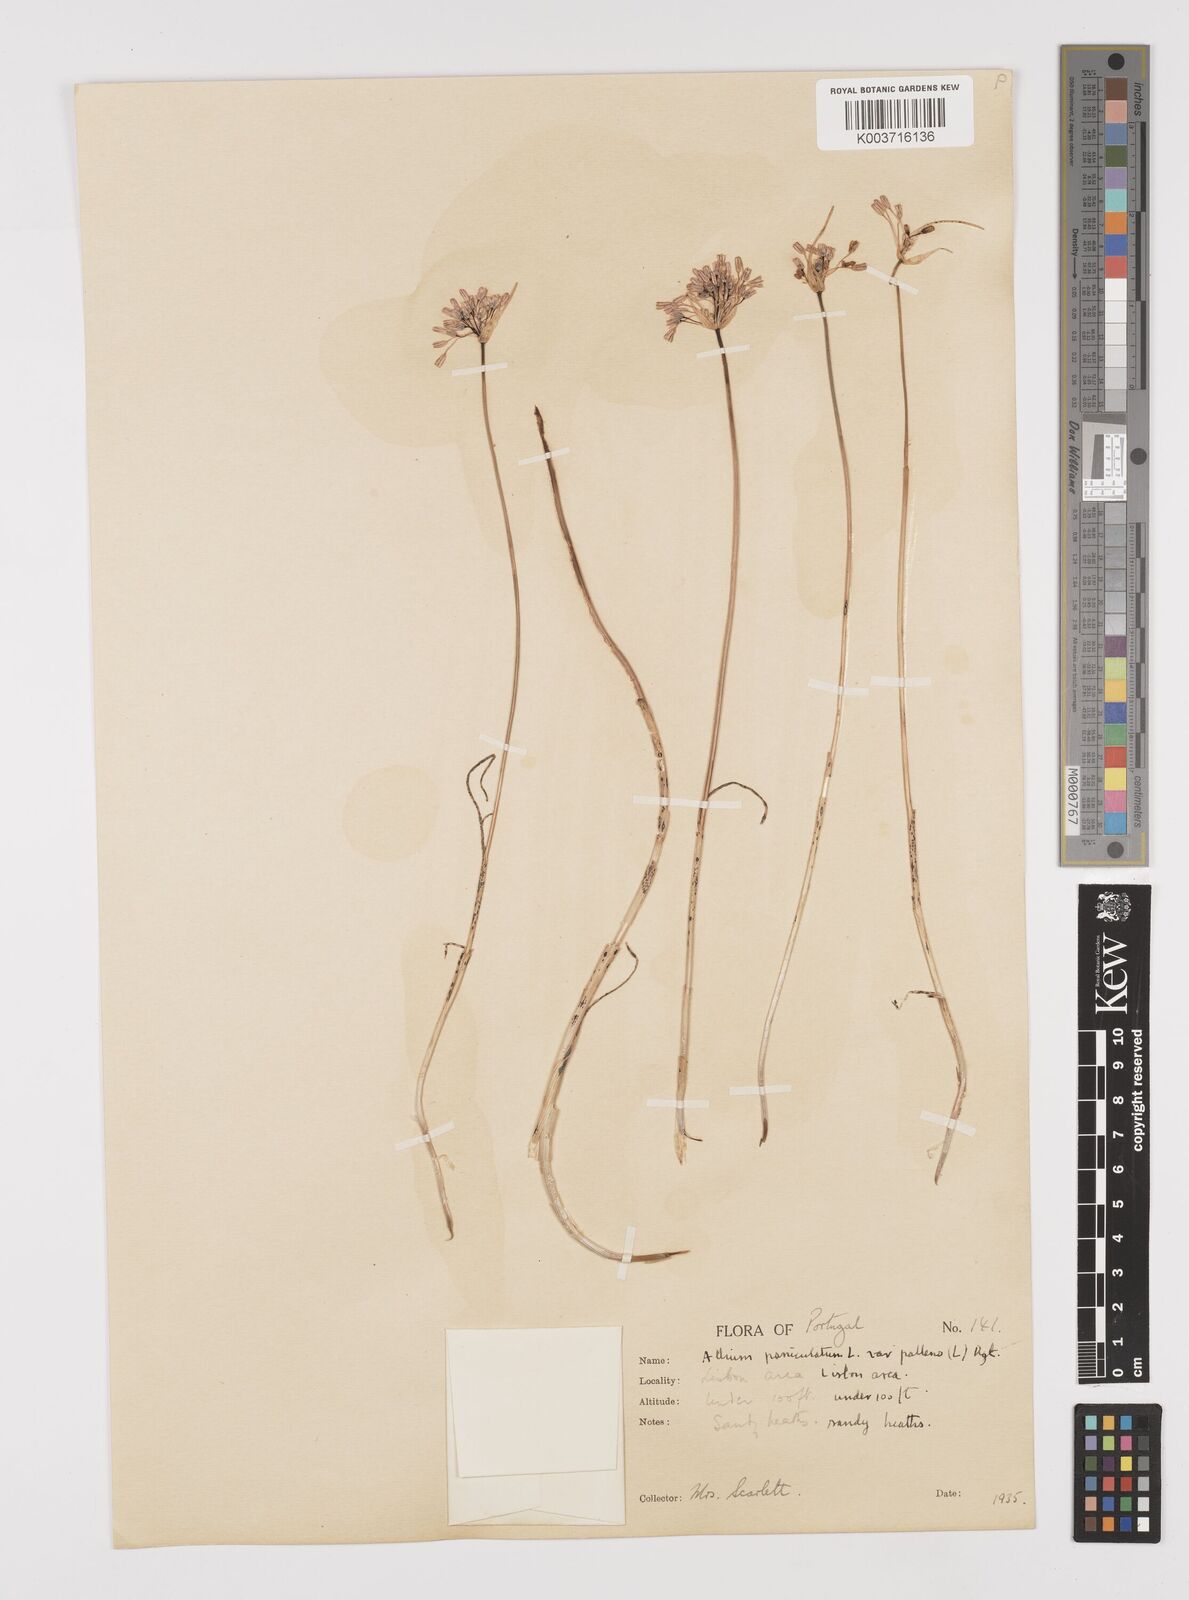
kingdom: Plantae
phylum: Tracheophyta
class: Liliopsida
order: Asparagales
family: Amaryllidaceae
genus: Allium
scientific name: Allium pallens
